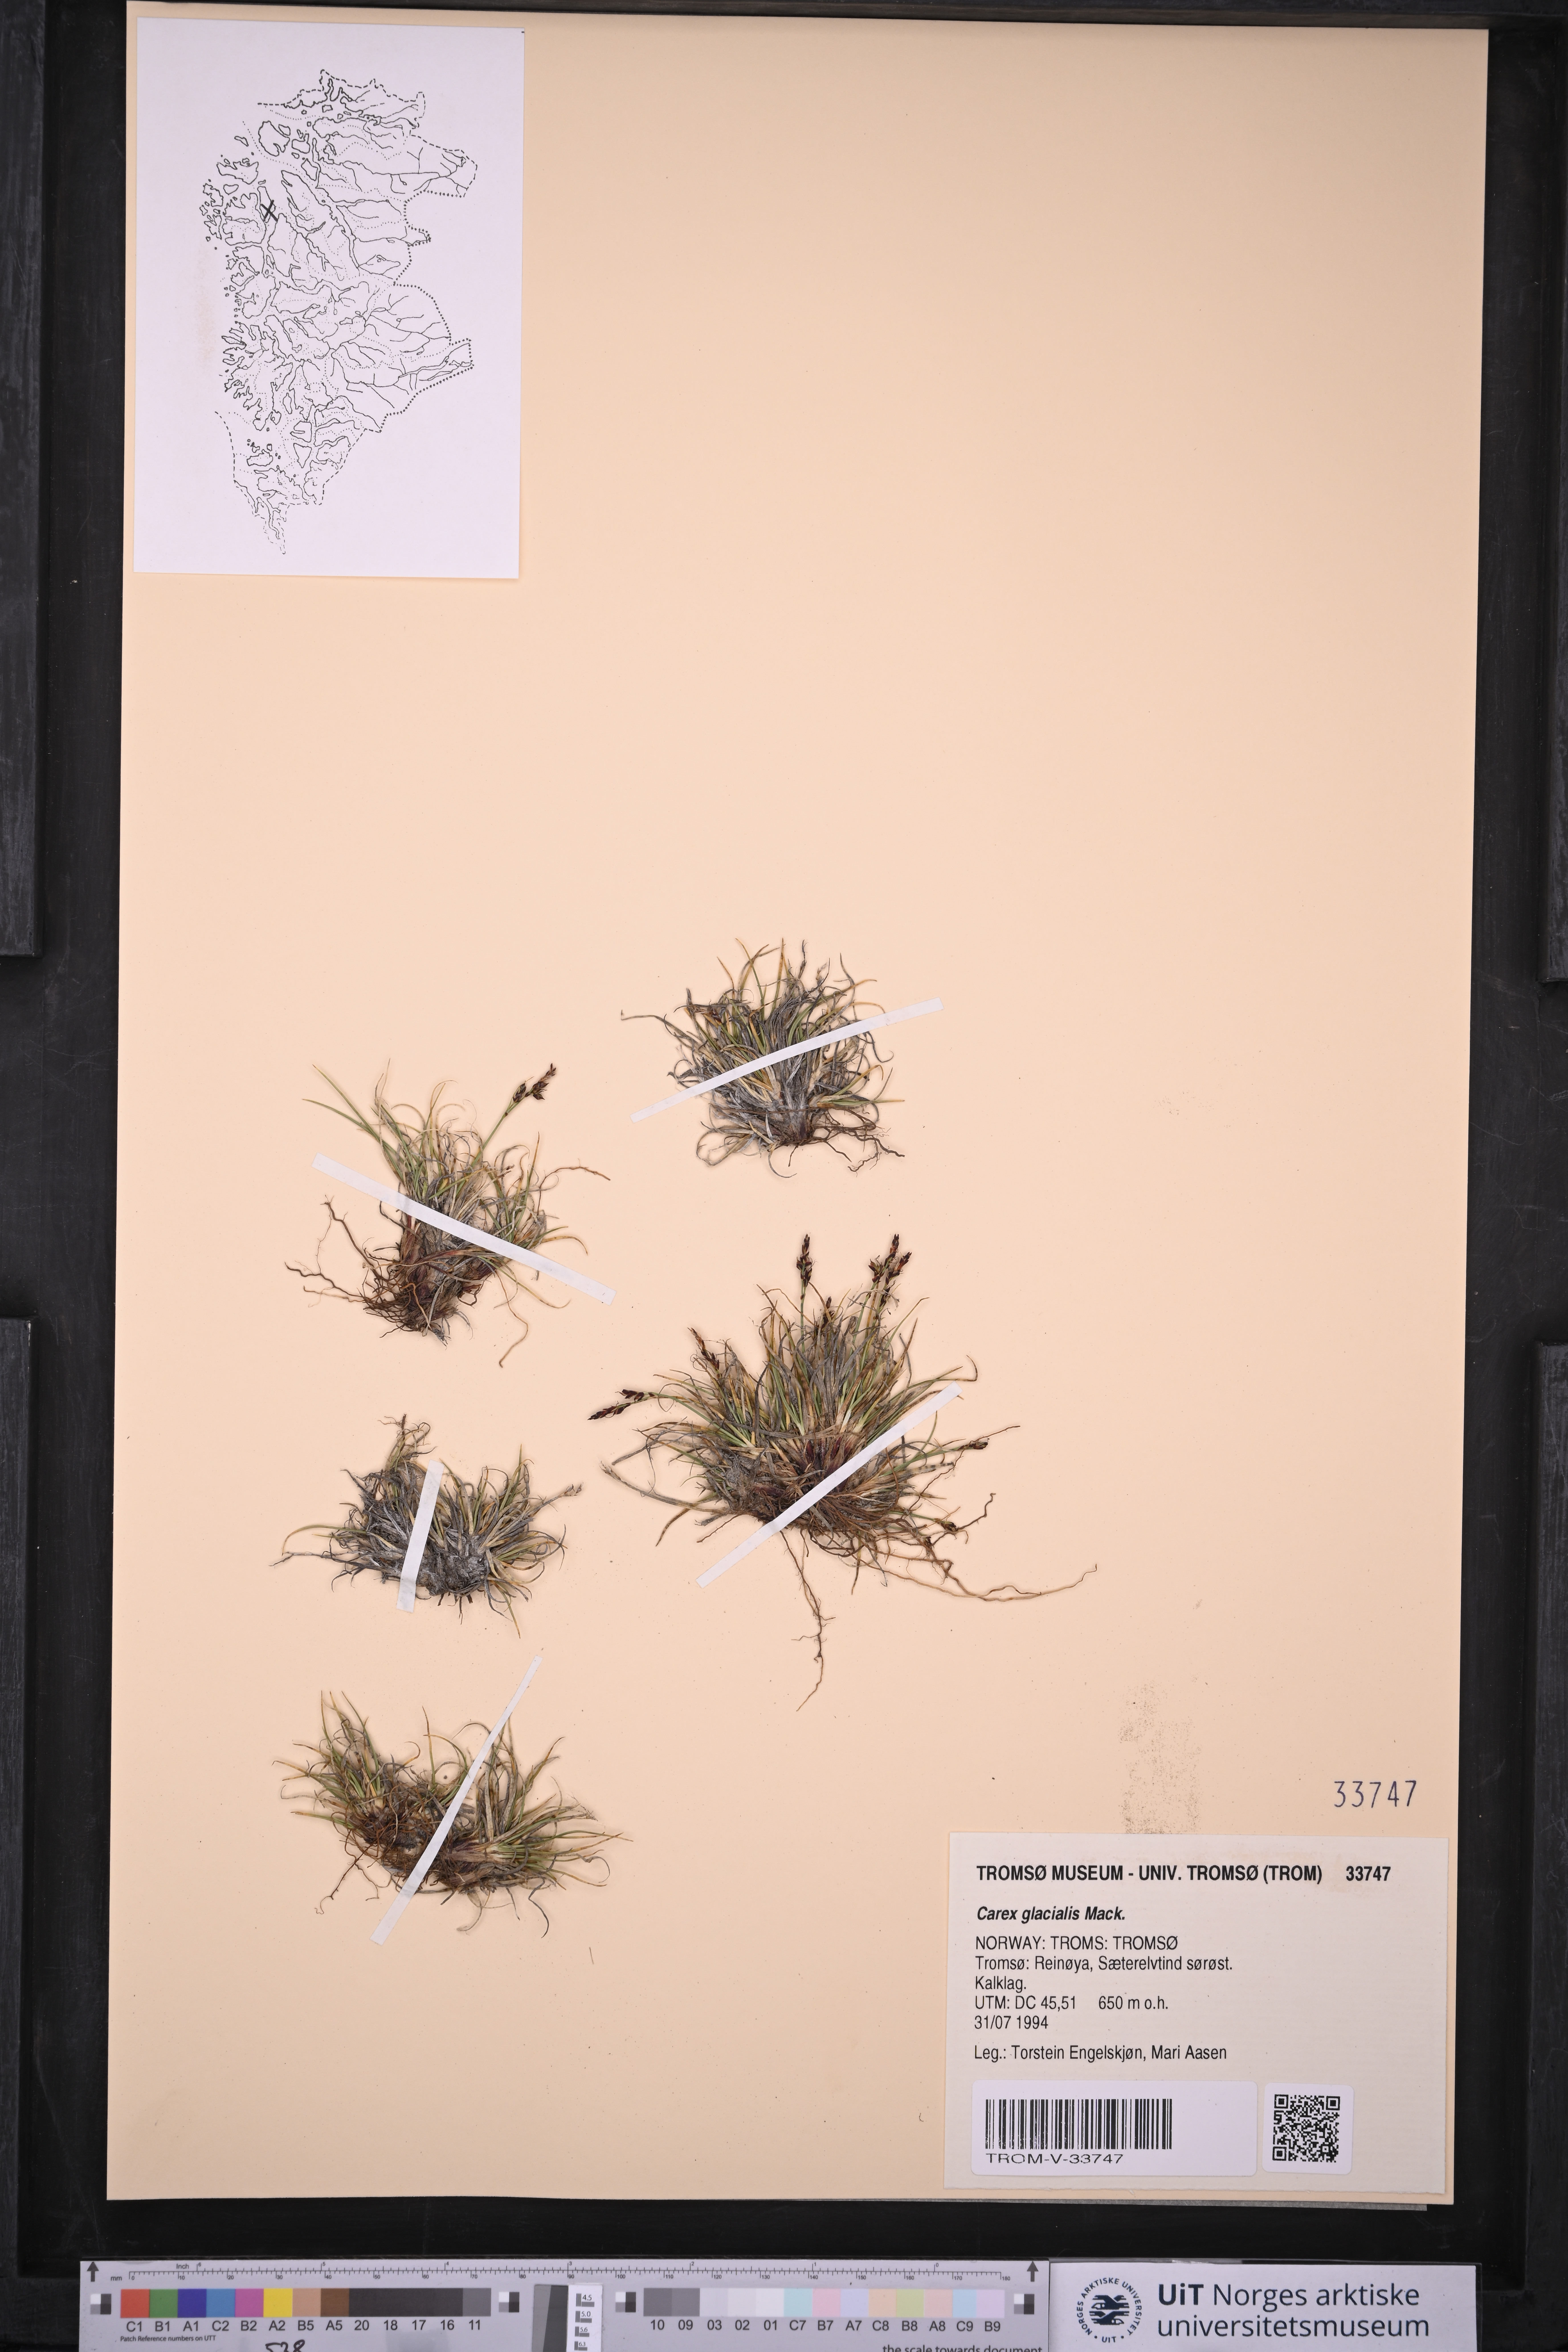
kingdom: Plantae
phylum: Tracheophyta
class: Liliopsida
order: Poales
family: Cyperaceae
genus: Carex
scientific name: Carex glacialis
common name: Newfoundland sedge
